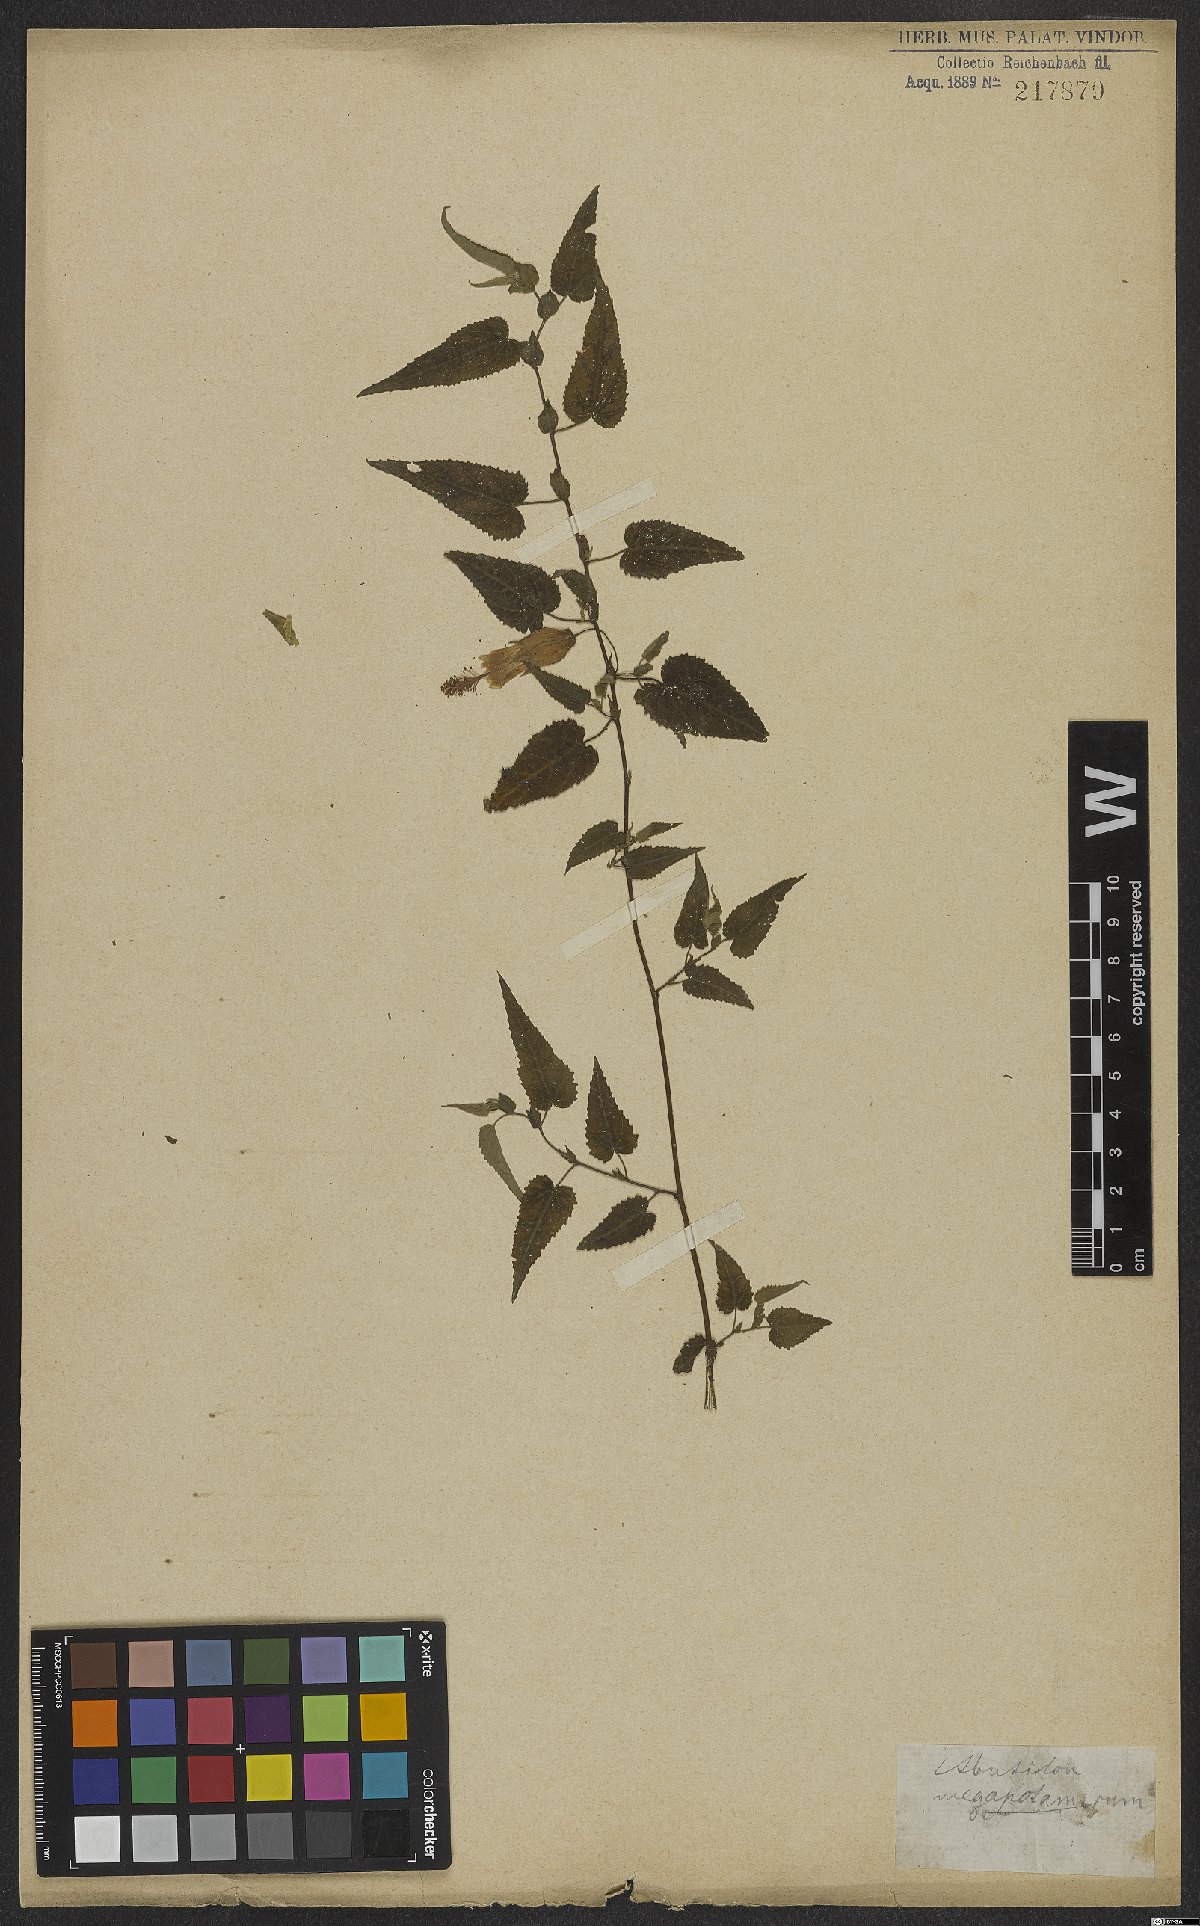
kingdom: Plantae
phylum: Tracheophyta
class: Magnoliopsida
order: Malvales
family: Malvaceae
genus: Callianthe
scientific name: Callianthe megapotamica
